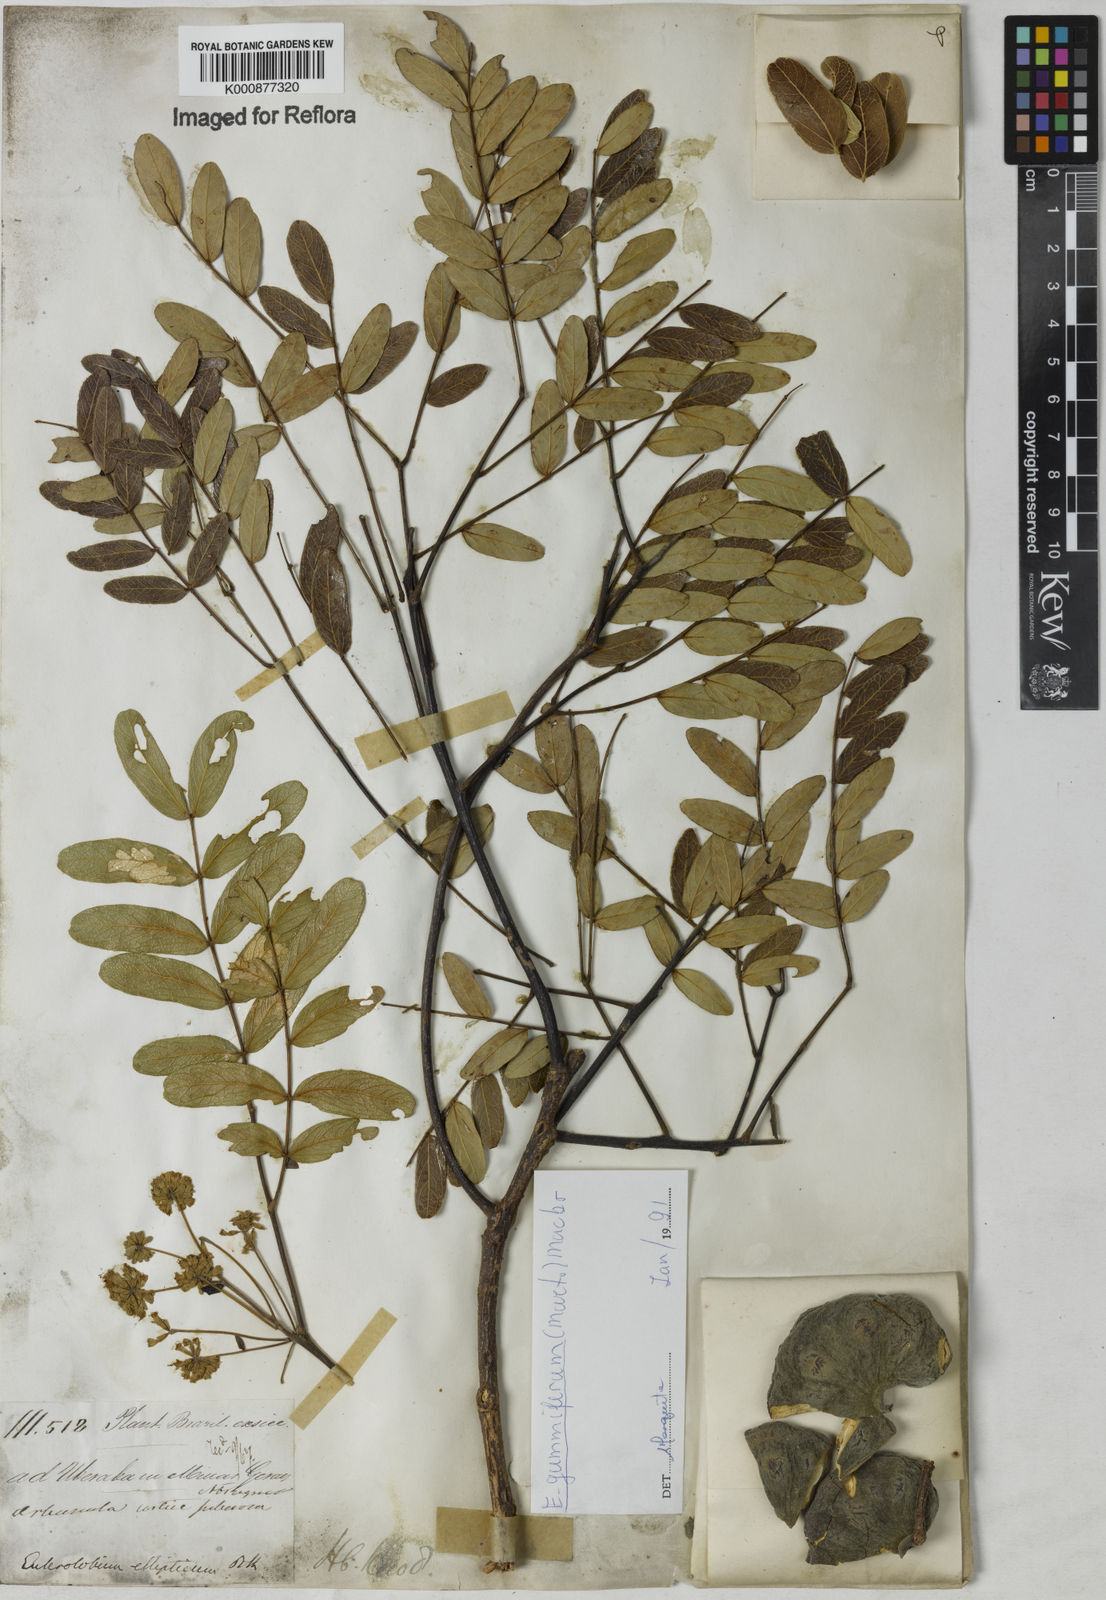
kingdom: Plantae
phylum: Tracheophyta
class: Magnoliopsida
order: Fabales
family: Fabaceae
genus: Enterolobium
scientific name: Enterolobium gummiferum
